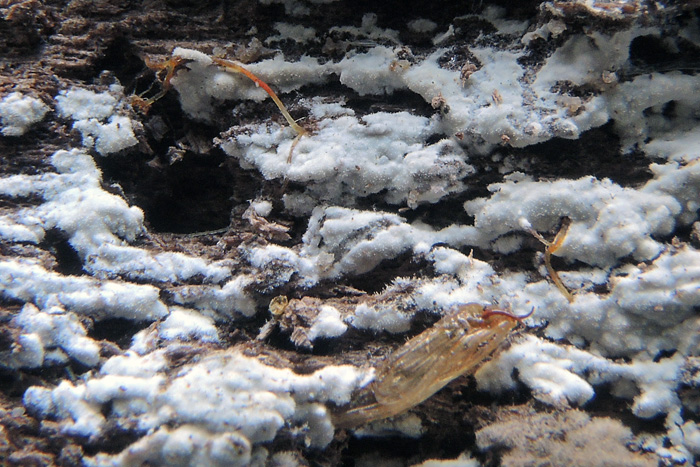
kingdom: Fungi
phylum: Basidiomycota
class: Agaricomycetes
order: Hymenochaetales
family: Rickenellaceae
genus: Peniophorella
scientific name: Peniophorella guttulifera
